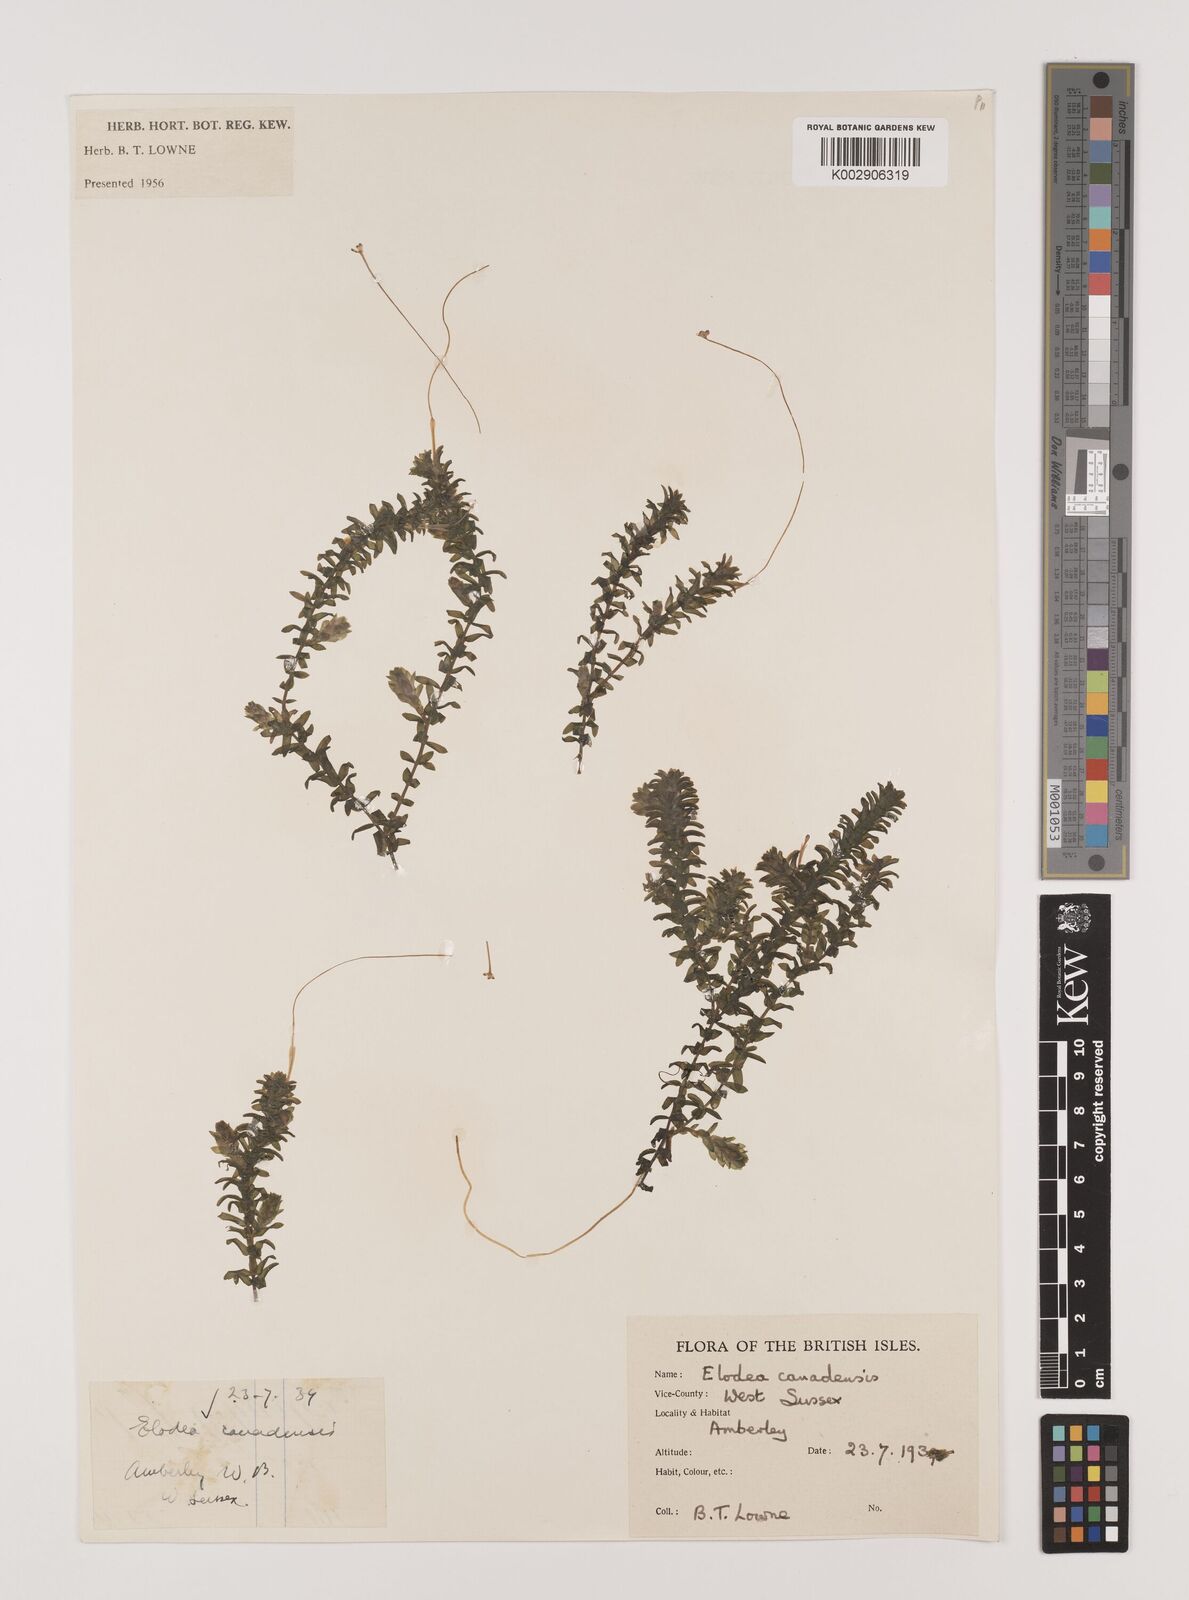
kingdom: Plantae
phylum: Tracheophyta
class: Liliopsida
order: Alismatales
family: Hydrocharitaceae
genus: Elodea
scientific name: Elodea canadensis
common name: Canadian waterweed
